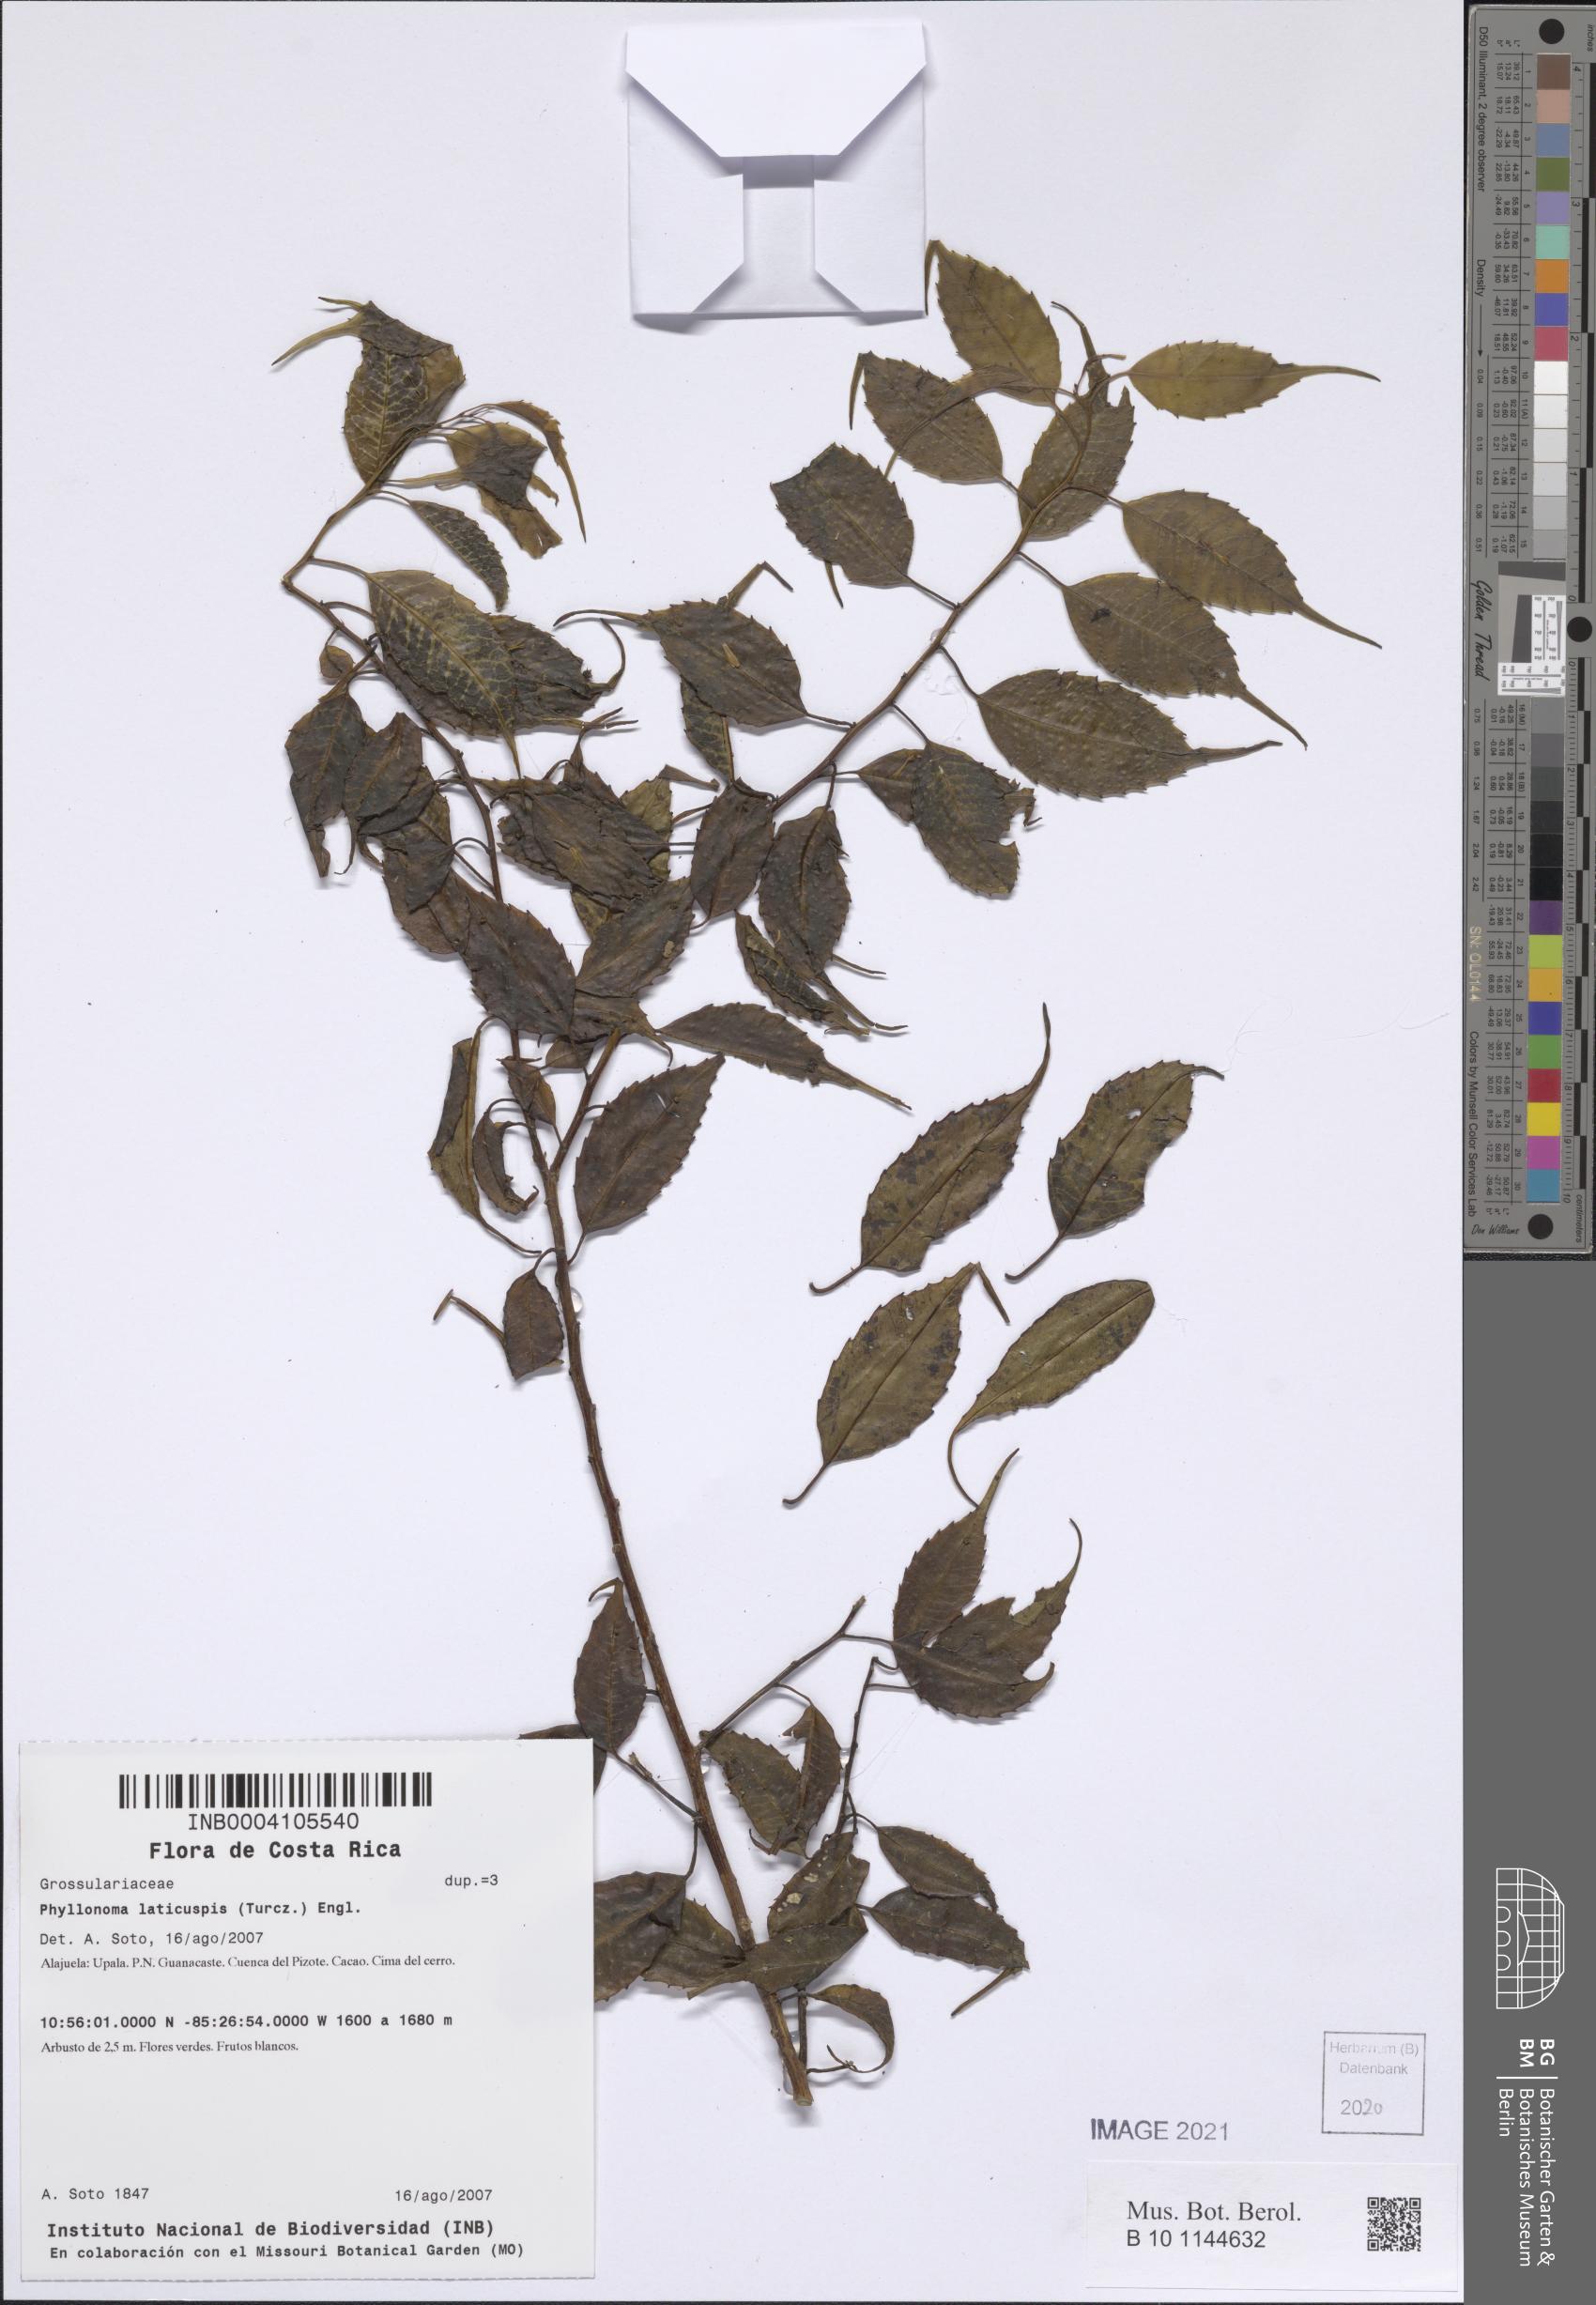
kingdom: Plantae
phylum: Tracheophyta
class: Magnoliopsida
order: Aquifoliales
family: Phyllonomaceae
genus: Phyllonoma
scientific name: Phyllonoma laticuspis
